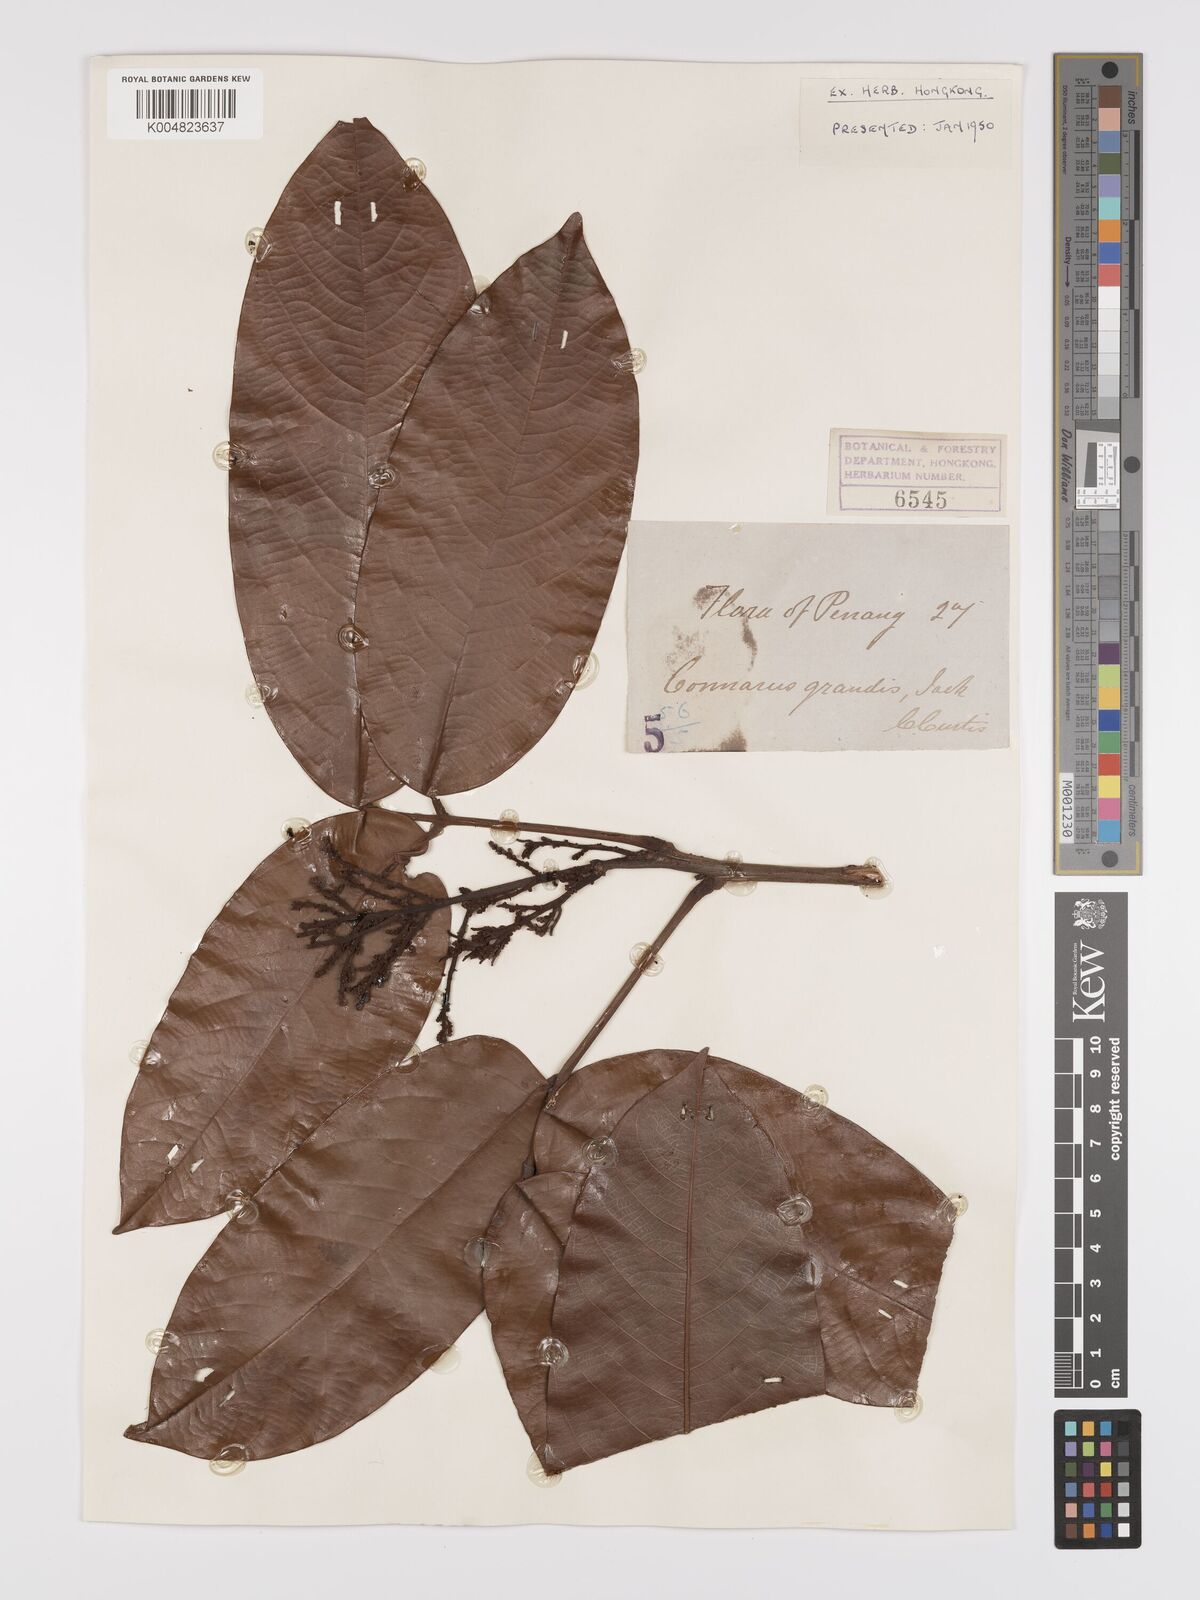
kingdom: Plantae
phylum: Tracheophyta
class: Magnoliopsida
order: Oxalidales
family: Connaraceae
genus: Connarus
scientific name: Connarus grandis
